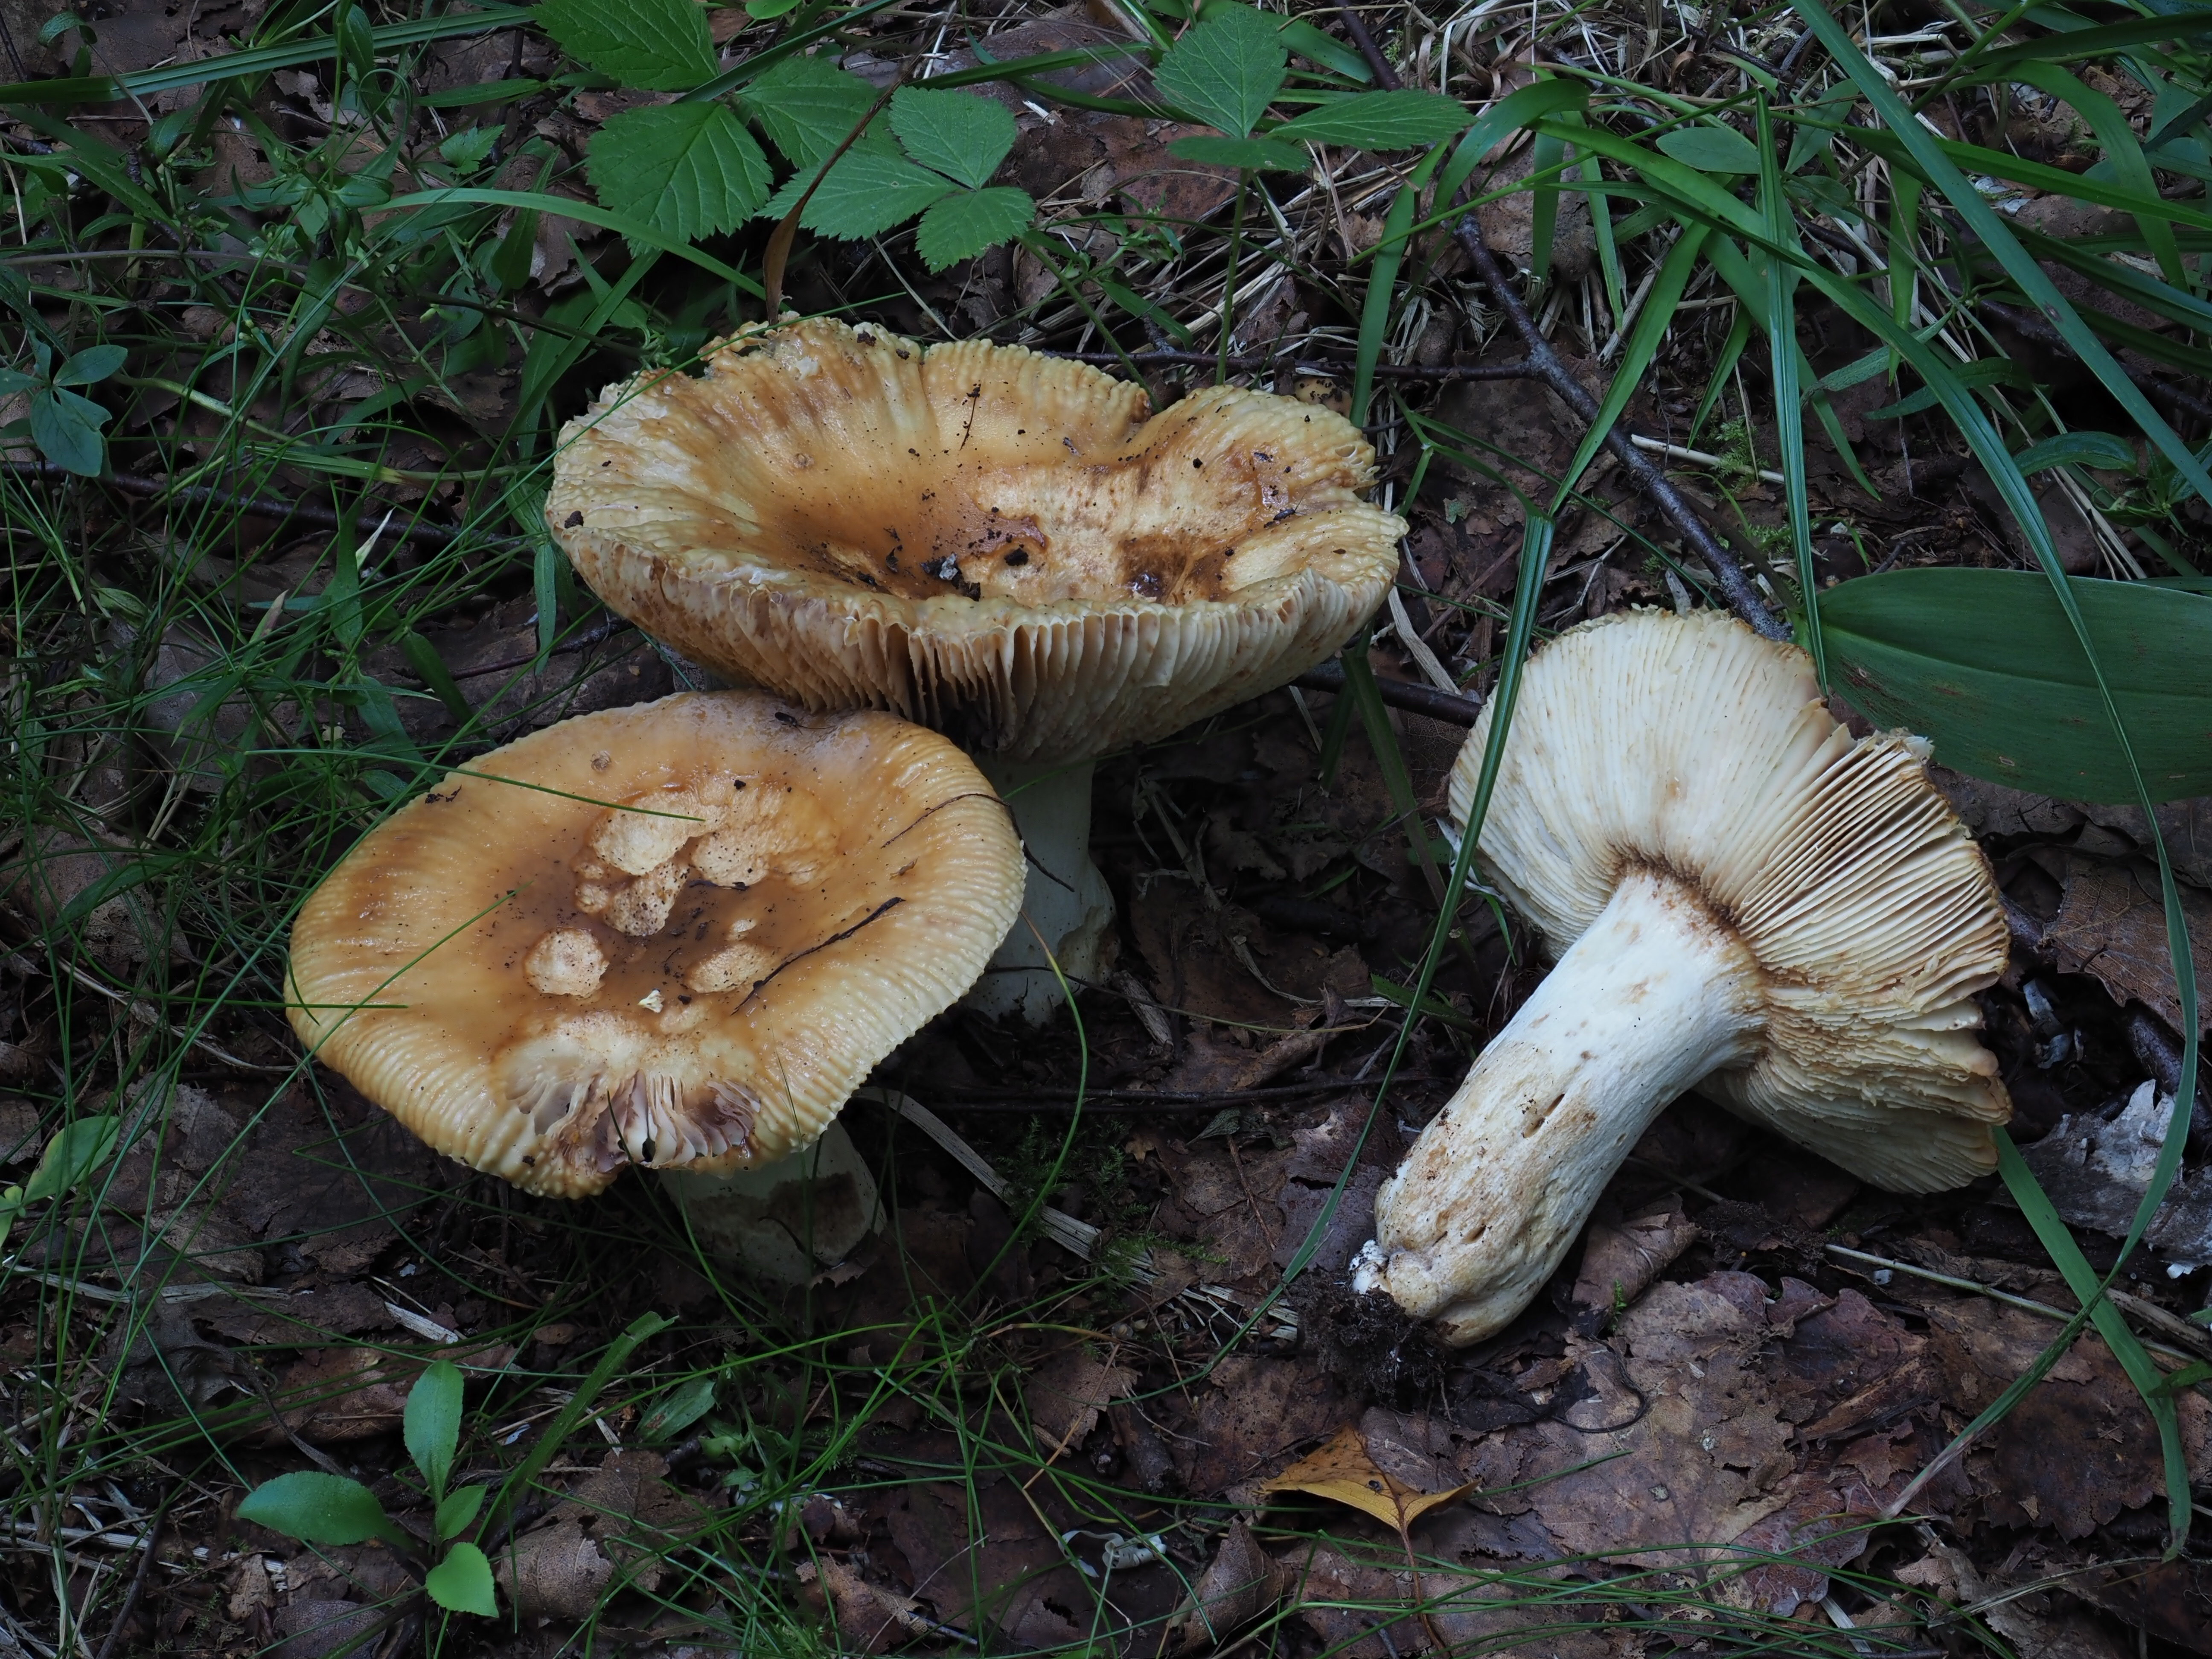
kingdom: Fungi
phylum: Basidiomycota
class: Agaricomycetes
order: Russulales
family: Russulaceae
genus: Russula
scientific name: Russula foetens
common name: Foetid russula
